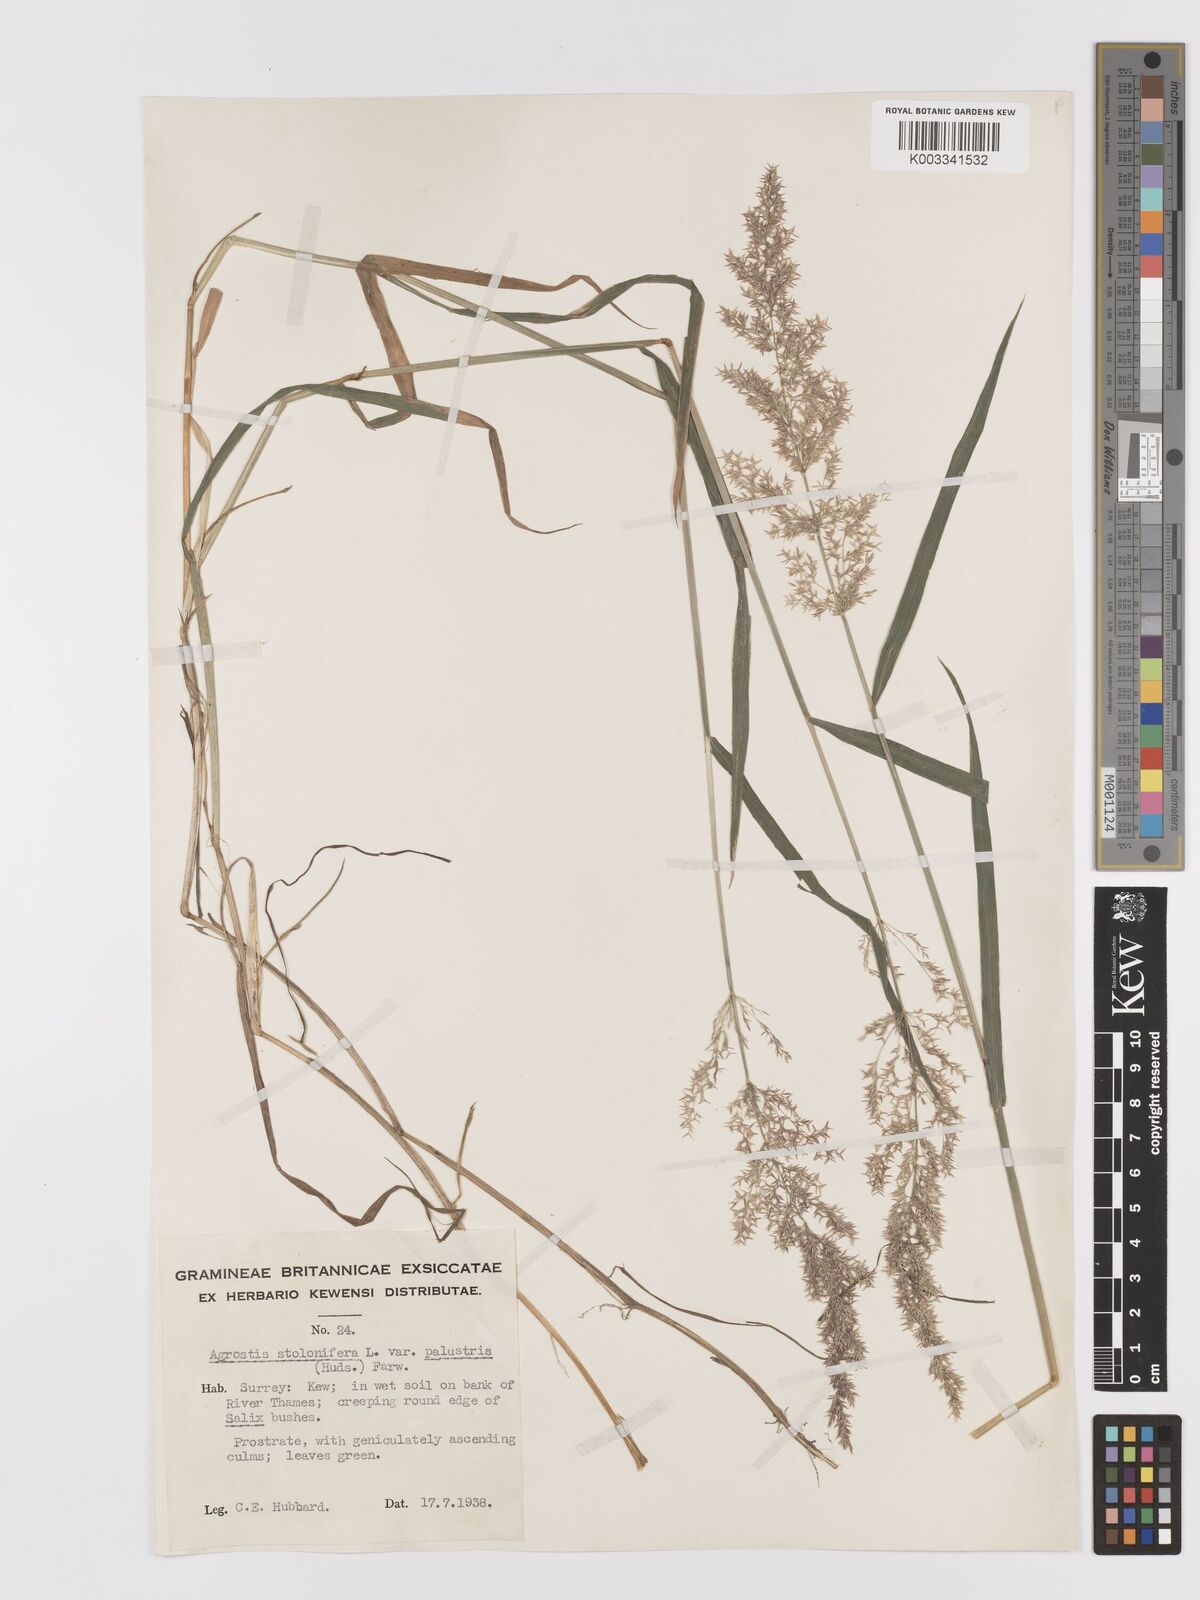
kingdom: Plantae
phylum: Tracheophyta
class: Liliopsida
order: Poales
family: Poaceae
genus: Agrostis
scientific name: Agrostis stolonifera
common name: Creeping bentgrass
